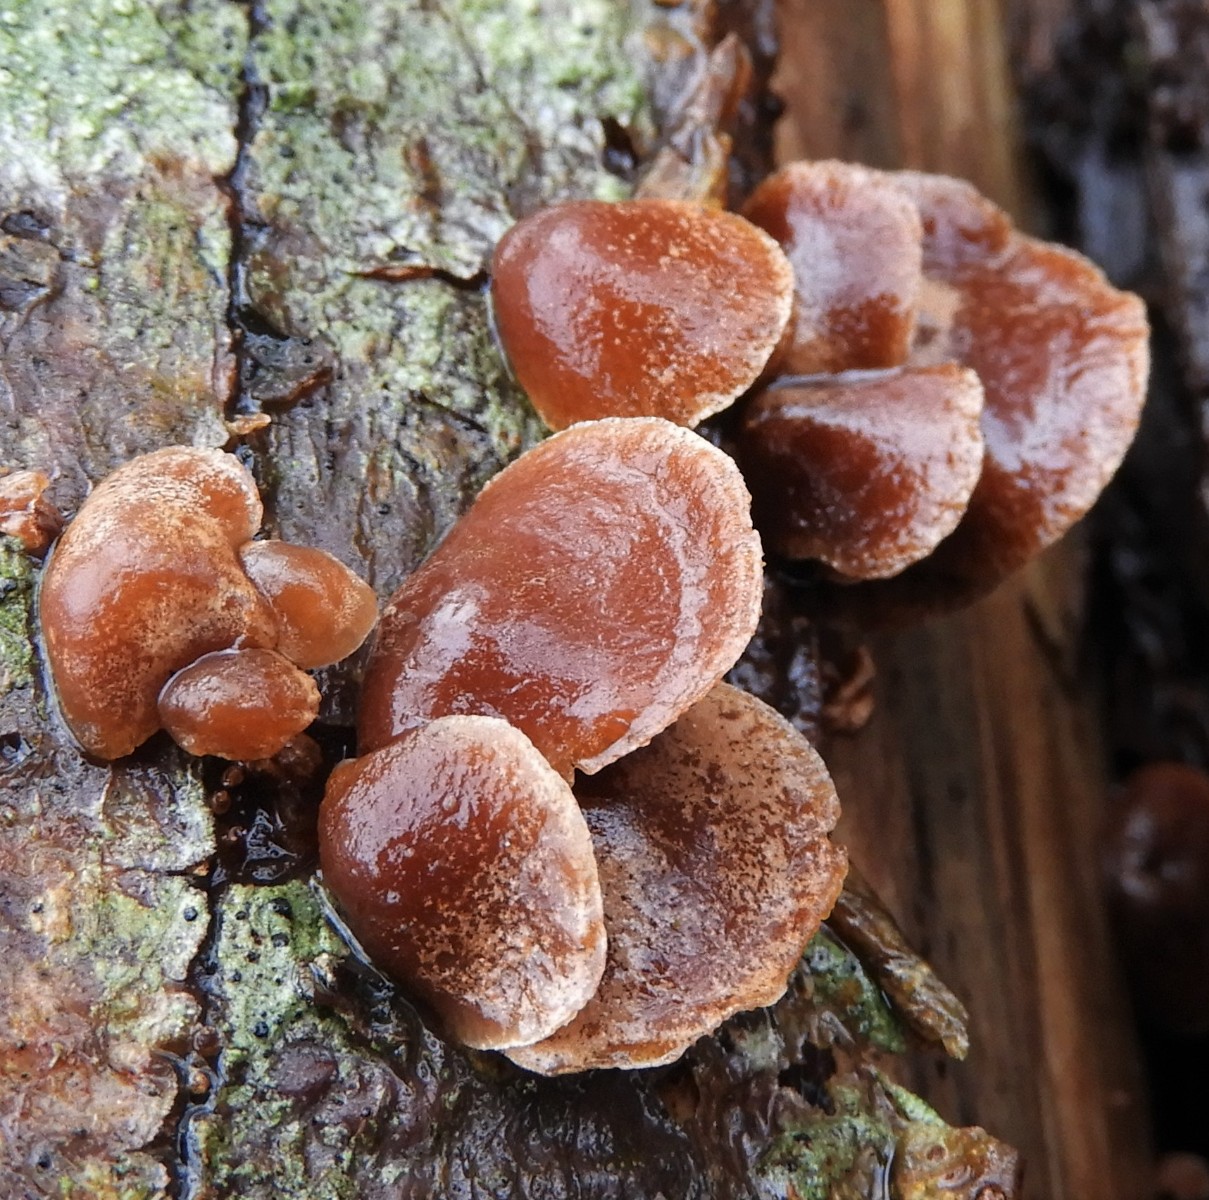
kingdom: Fungi
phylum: Basidiomycota
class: Agaricomycetes
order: Agaricales
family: Strophariaceae
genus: Deconica
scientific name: Deconica horizontalis
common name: ved-stråhat
